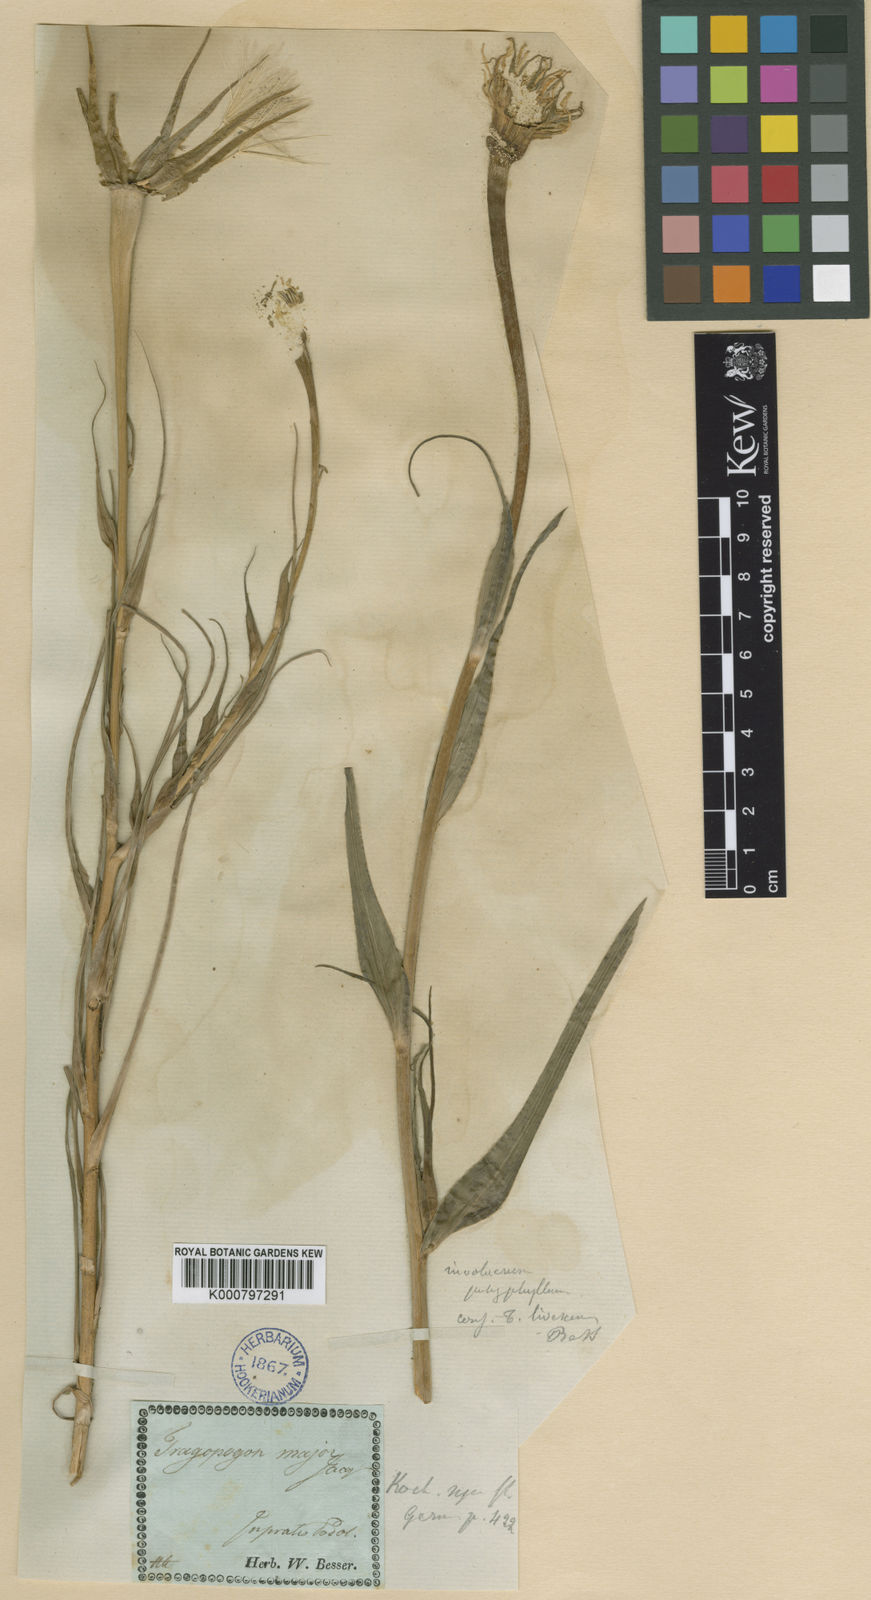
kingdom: Plantae
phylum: Tracheophyta
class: Magnoliopsida
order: Asterales
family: Asteraceae
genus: Tragopogon
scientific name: Tragopogon
